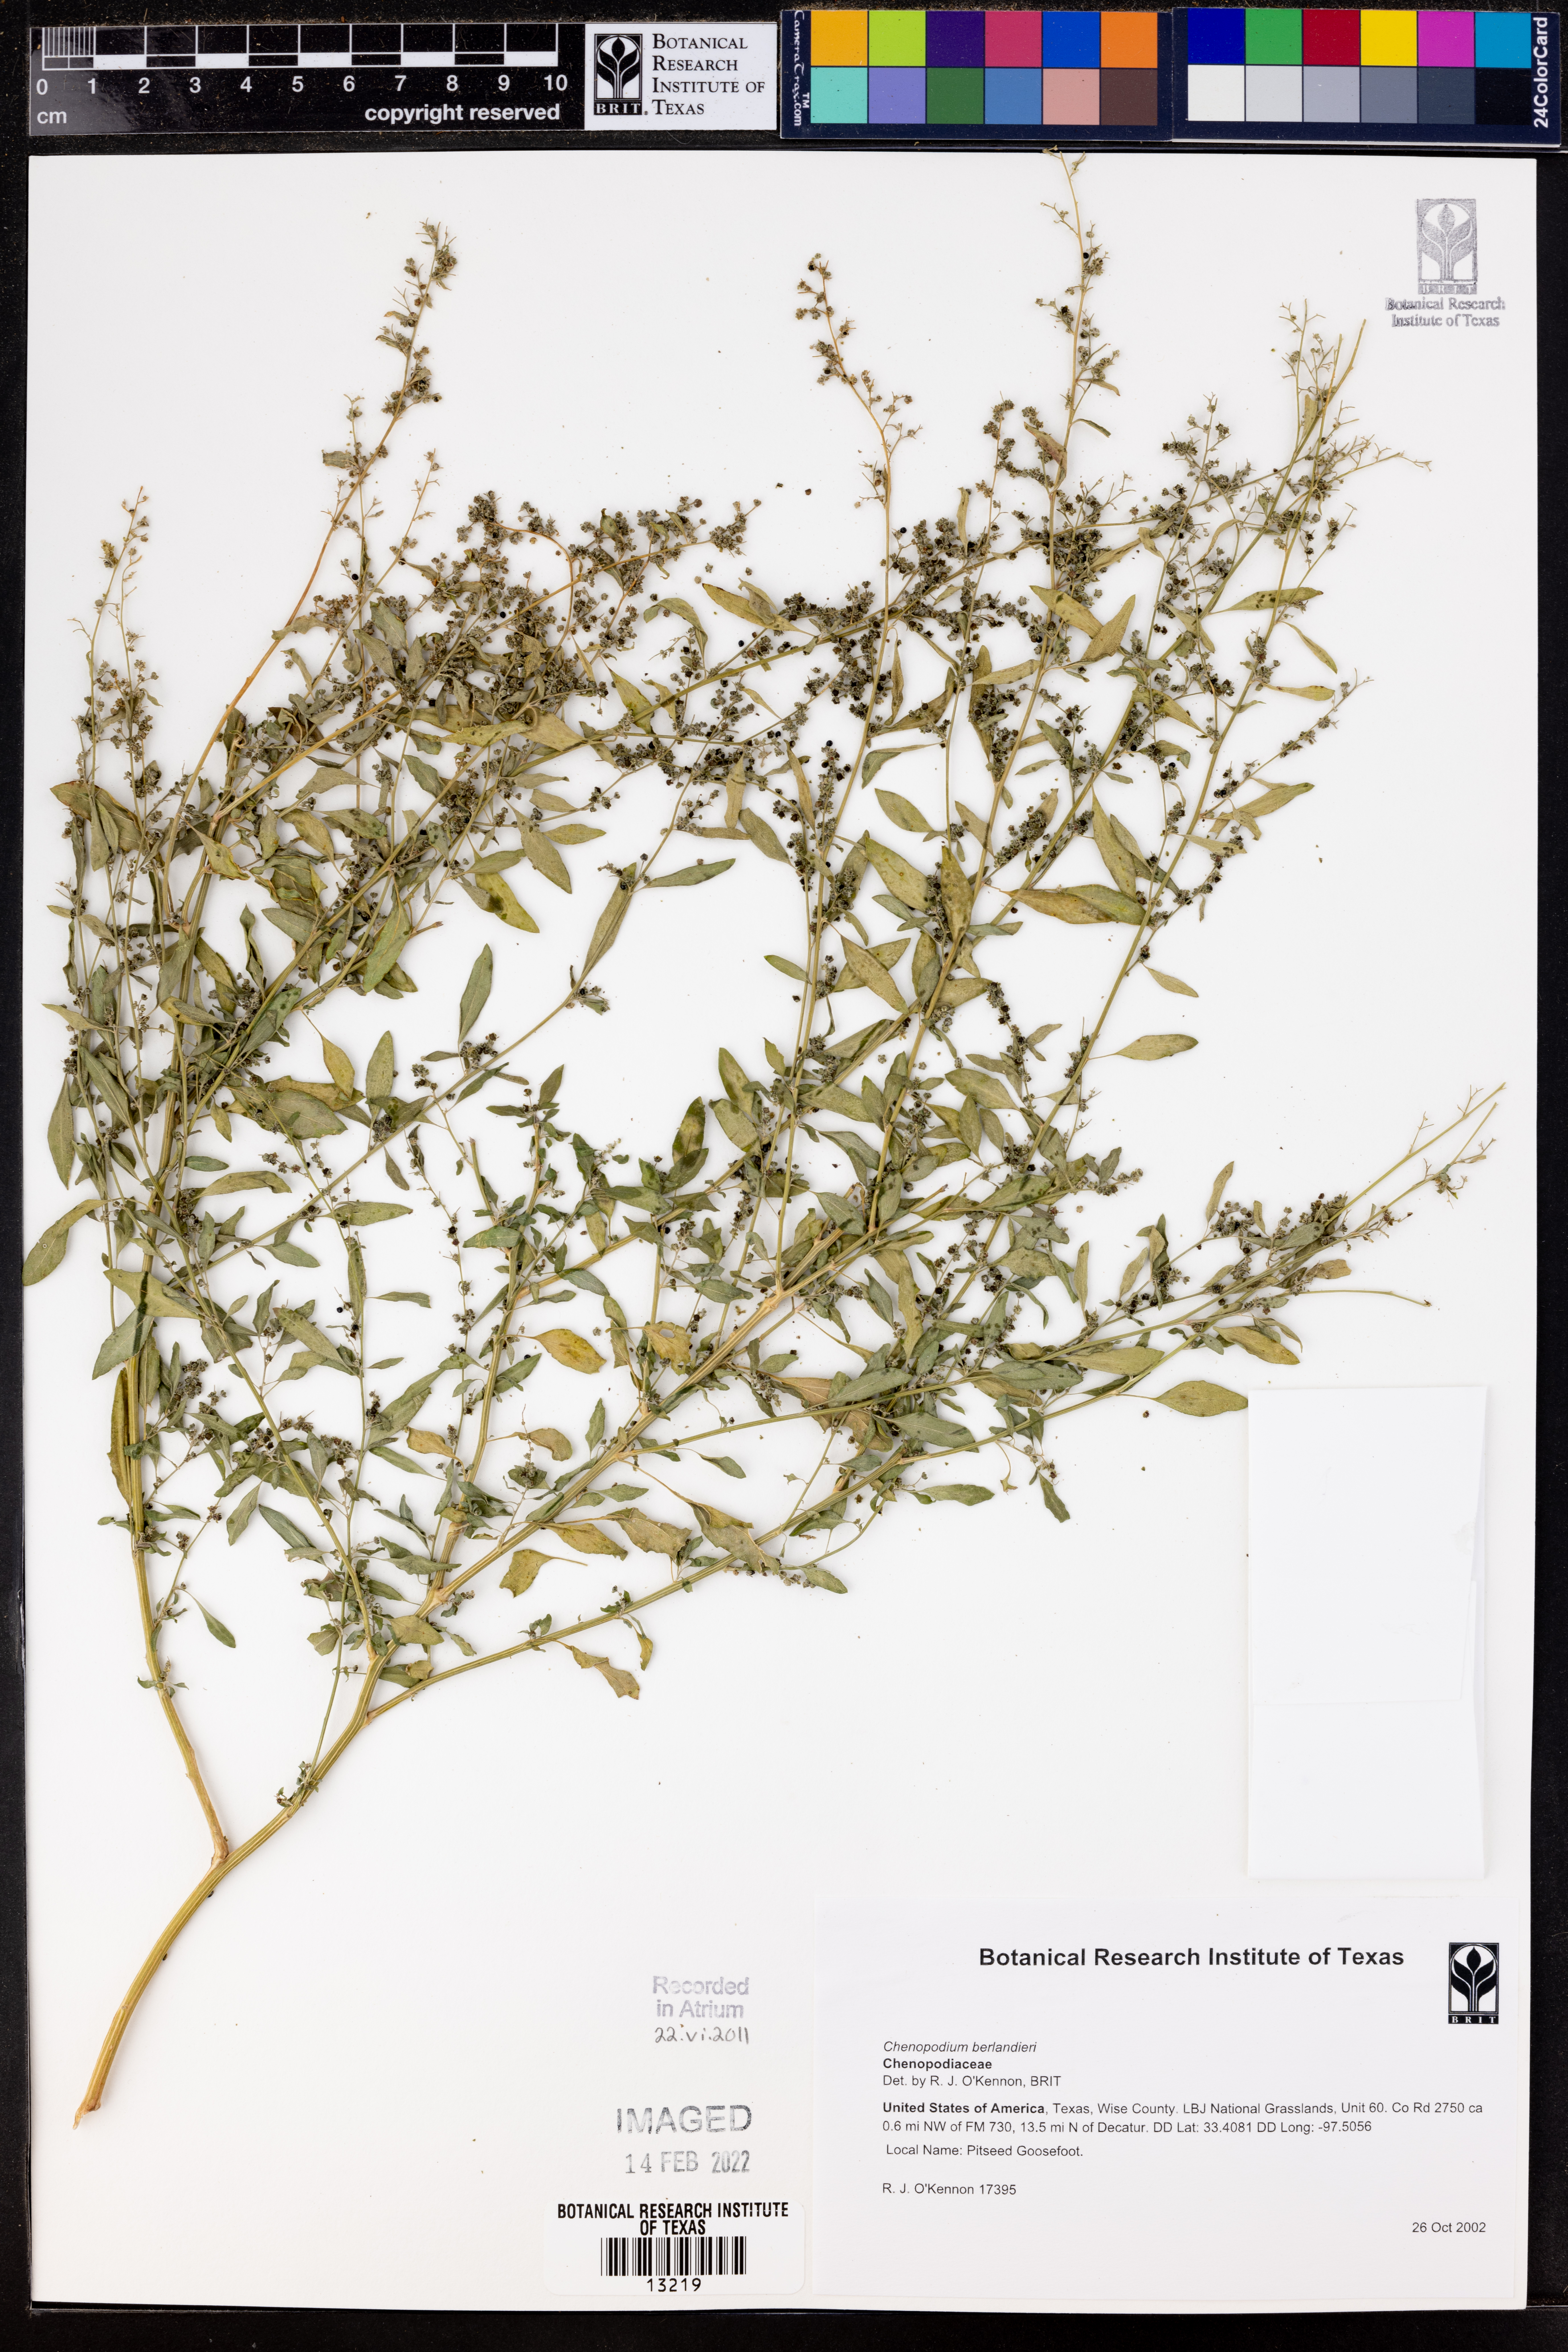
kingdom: Plantae
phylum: Tracheophyta
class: Magnoliopsida
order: Caryophyllales
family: Amaranthaceae
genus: Chenopodium
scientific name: Chenopodium berlandieri
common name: Pit-seed goosefoot
